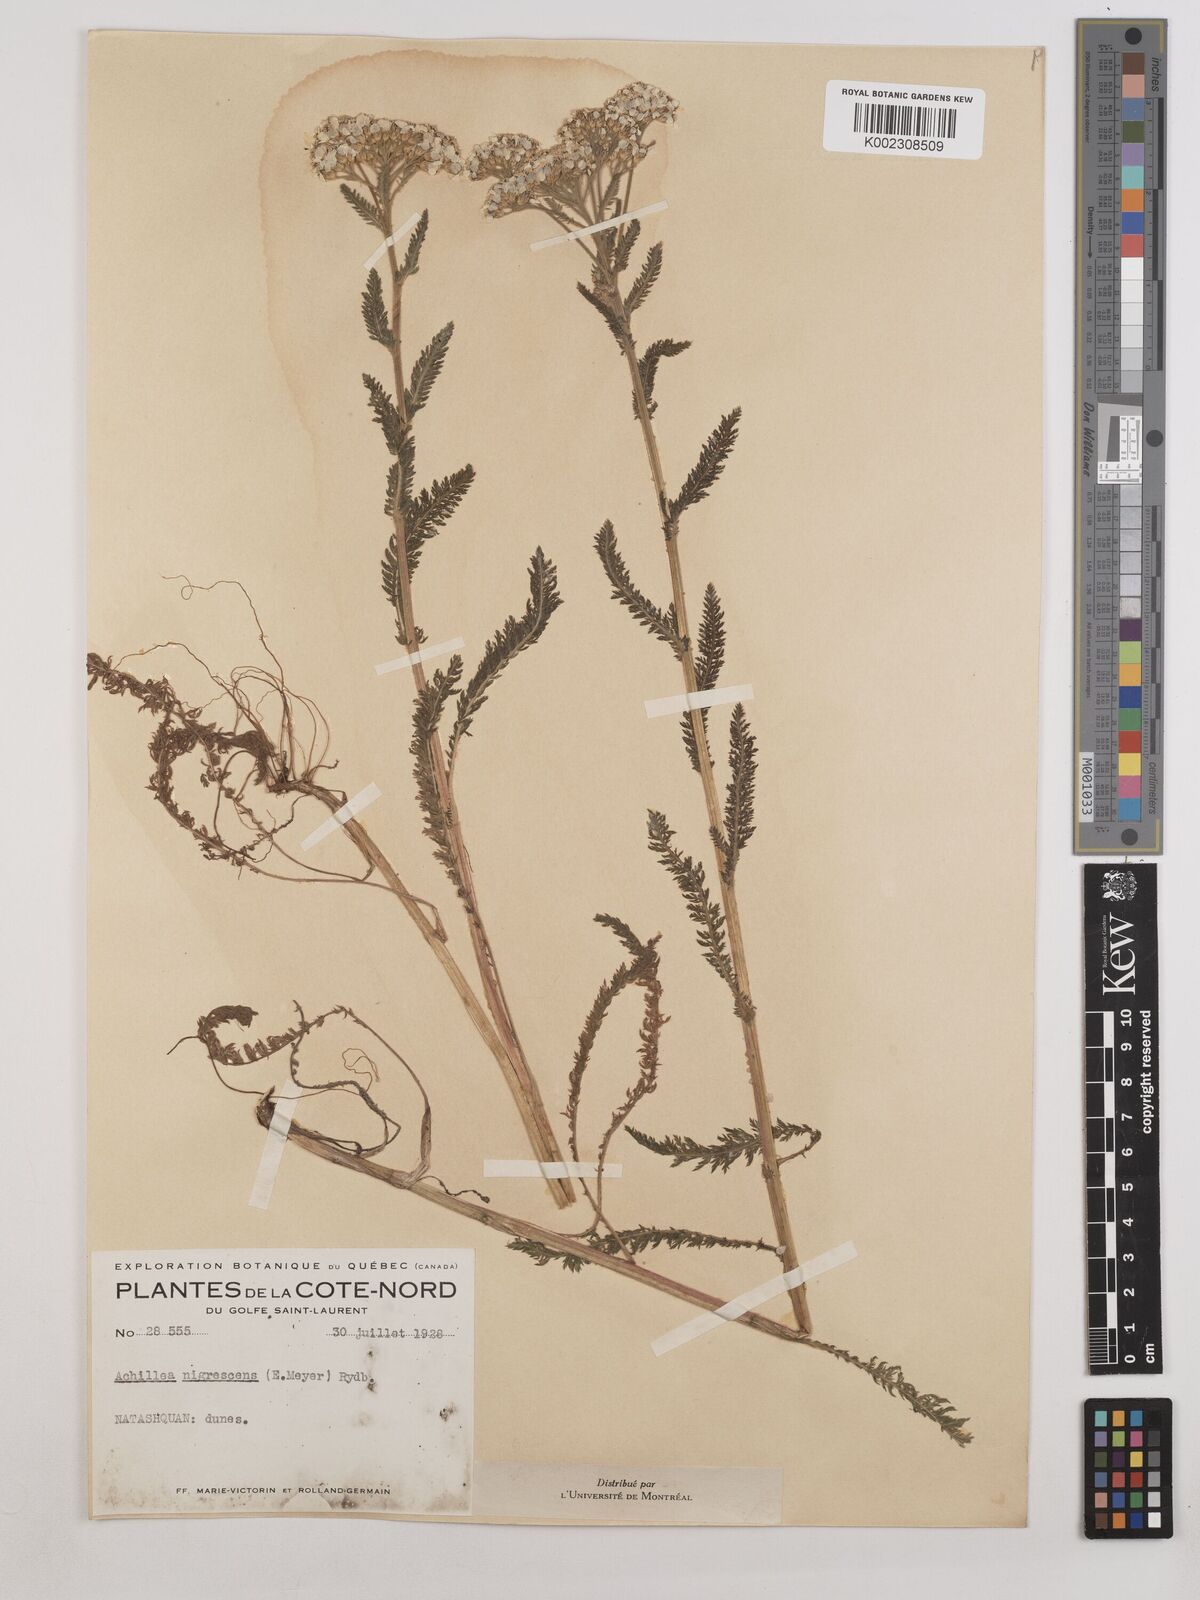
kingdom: Plantae
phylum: Tracheophyta
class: Magnoliopsida
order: Asterales
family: Asteraceae
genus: Achillea
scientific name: Achillea millefolium
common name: Yarrow
